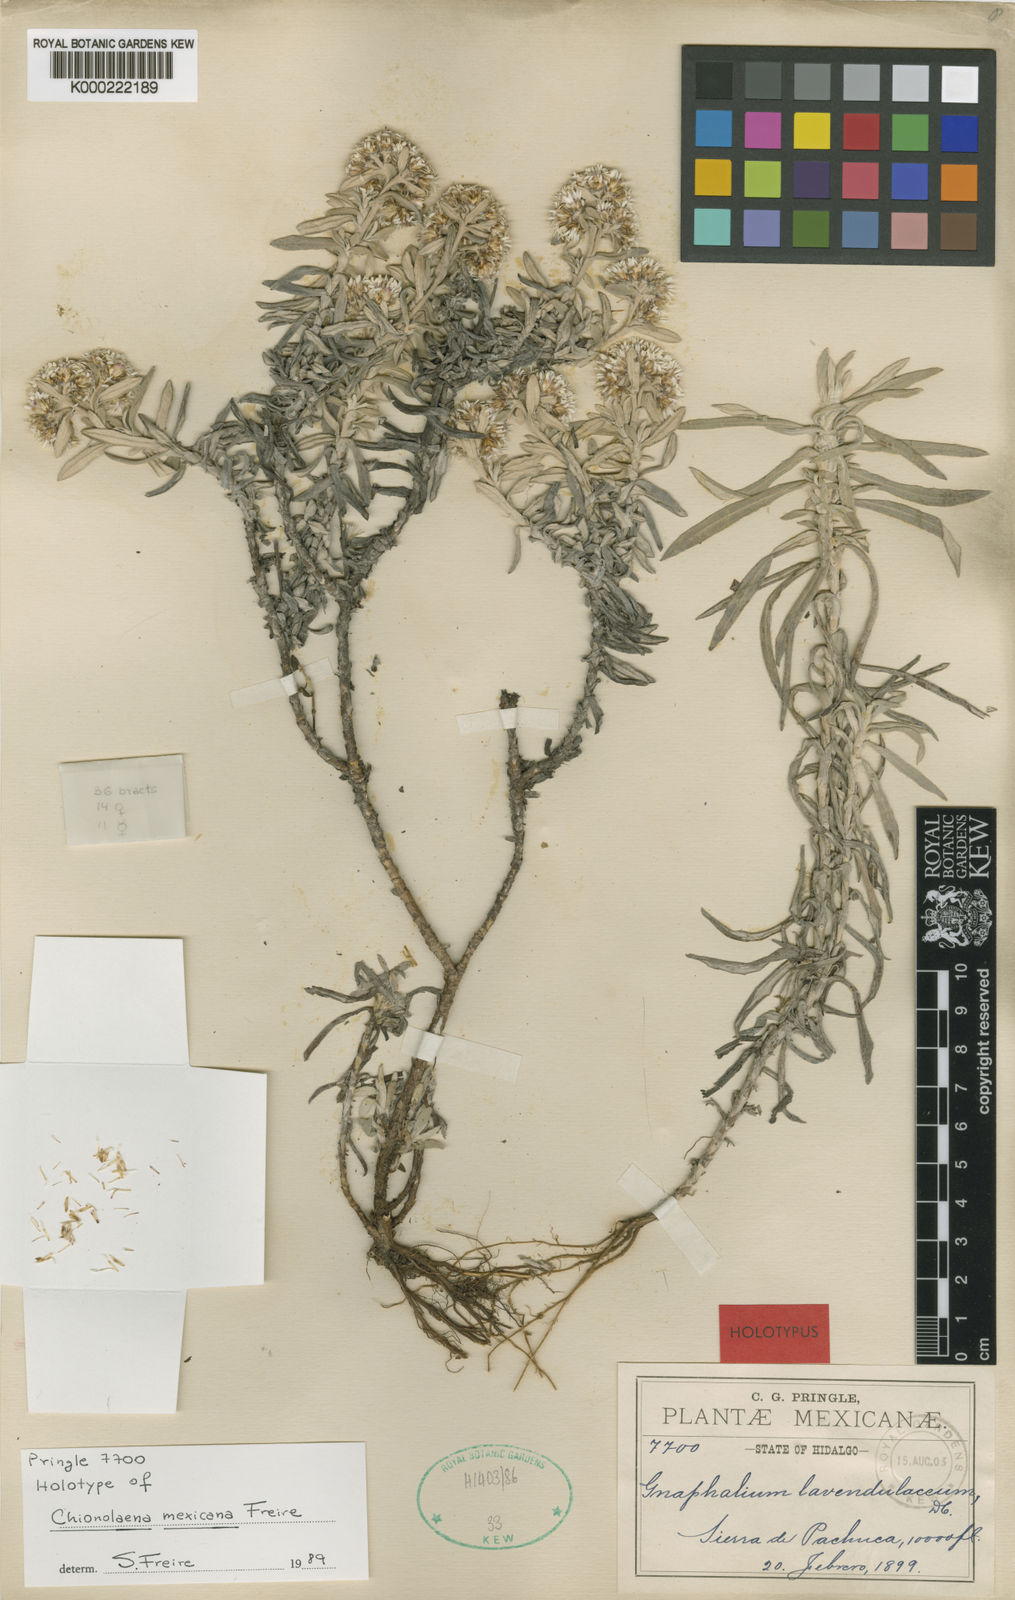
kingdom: Plantae
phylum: Tracheophyta
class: Magnoliopsida
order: Asterales
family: Asteraceae
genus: Chionolaena
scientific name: Chionolaena mexicana
